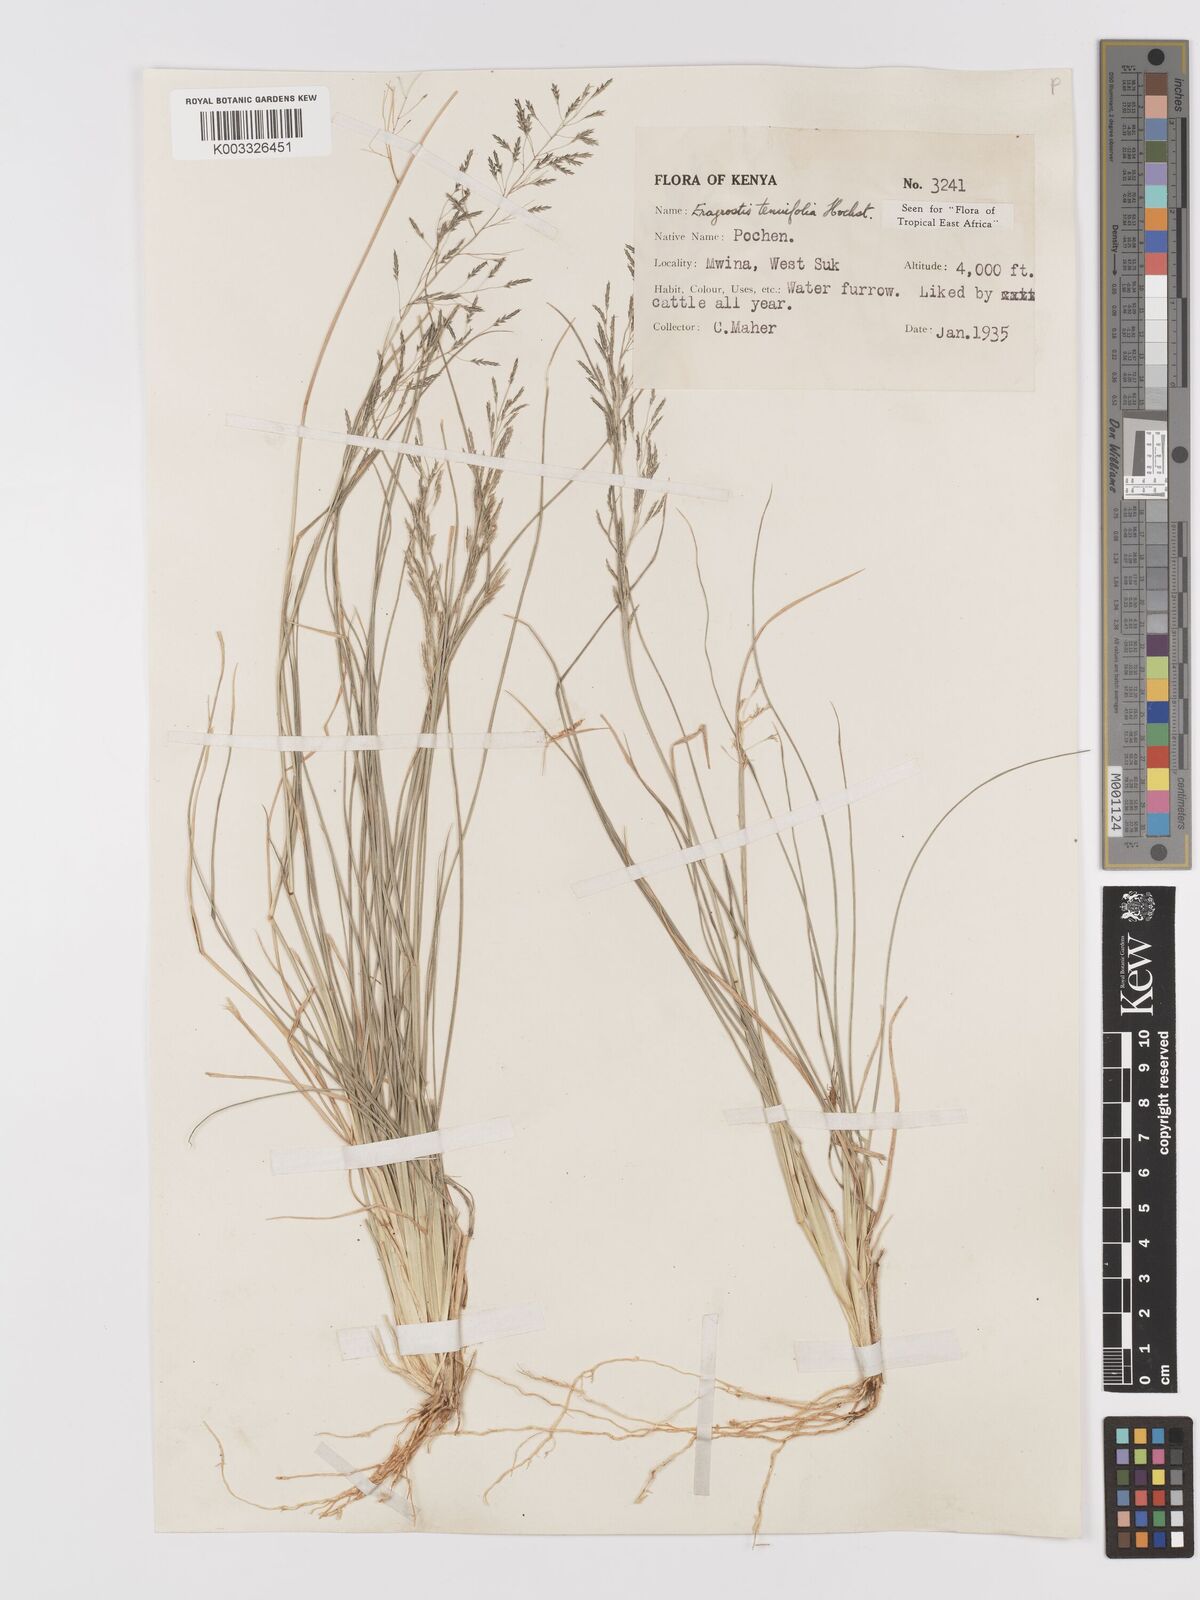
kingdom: Plantae
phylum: Tracheophyta
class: Liliopsida
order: Poales
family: Poaceae
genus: Eragrostis
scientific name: Eragrostis tenuifolia
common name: Elastic grass
